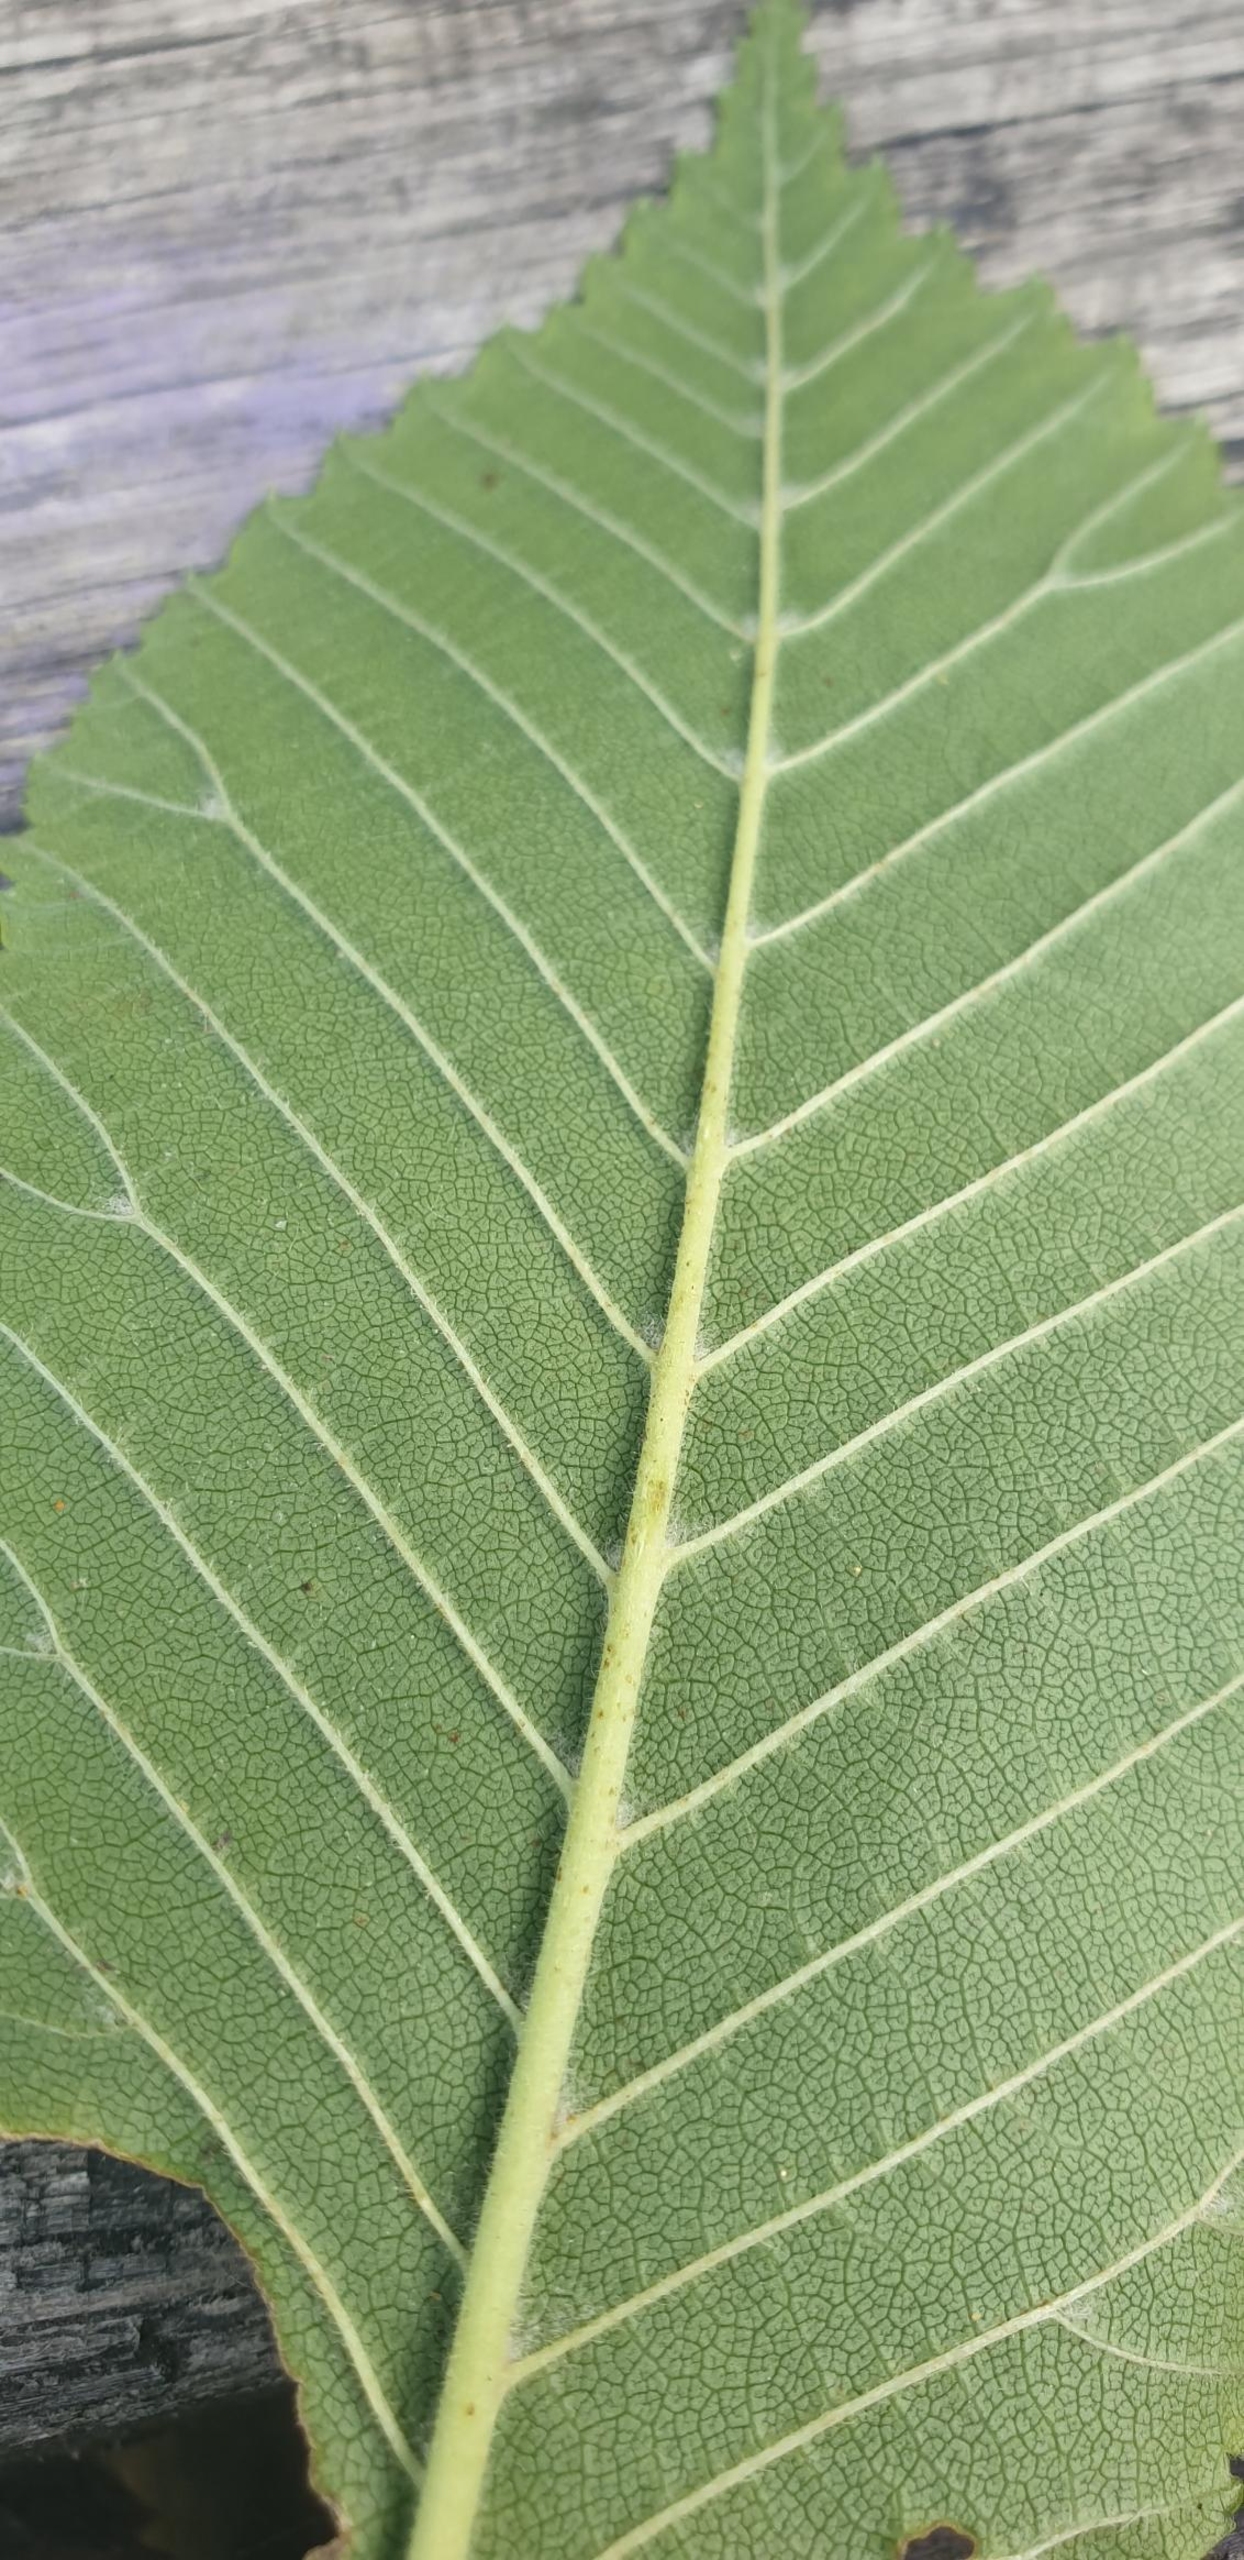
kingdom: Plantae
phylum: Tracheophyta
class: Magnoliopsida
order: Rosales
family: Ulmaceae
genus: Ulmus
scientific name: Ulmus glabra
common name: Skov-elm/storbladet elm
